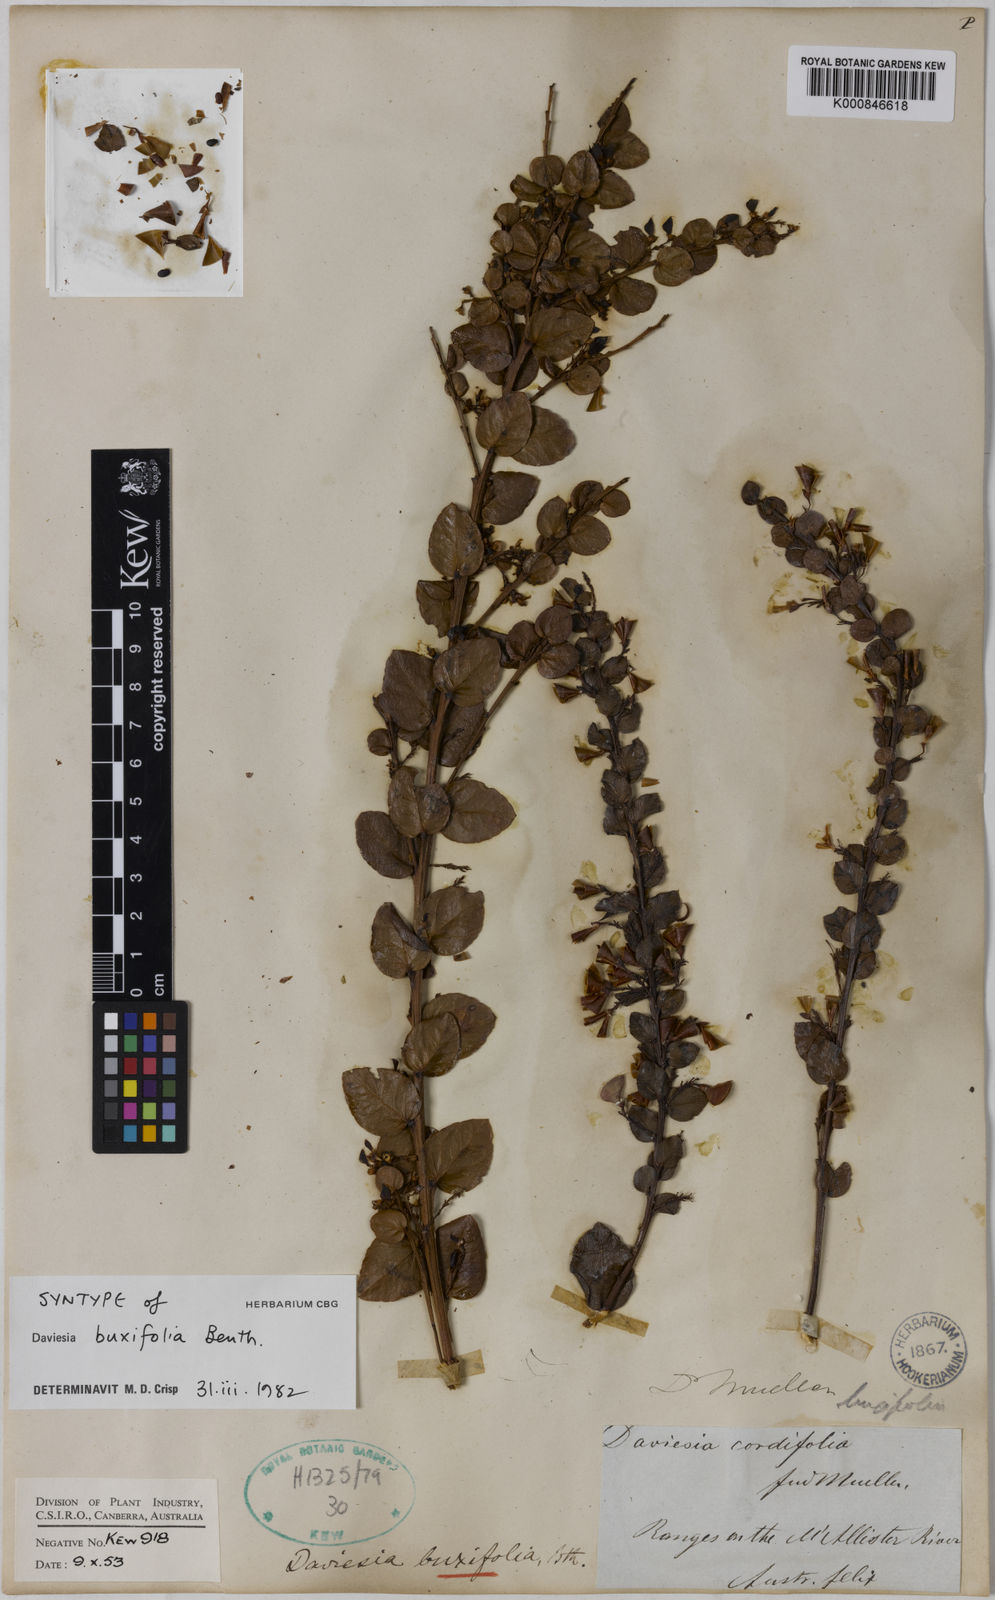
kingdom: Plantae
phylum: Tracheophyta
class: Magnoliopsida
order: Fabales
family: Fabaceae
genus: Daviesia
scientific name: Daviesia mimosoides
